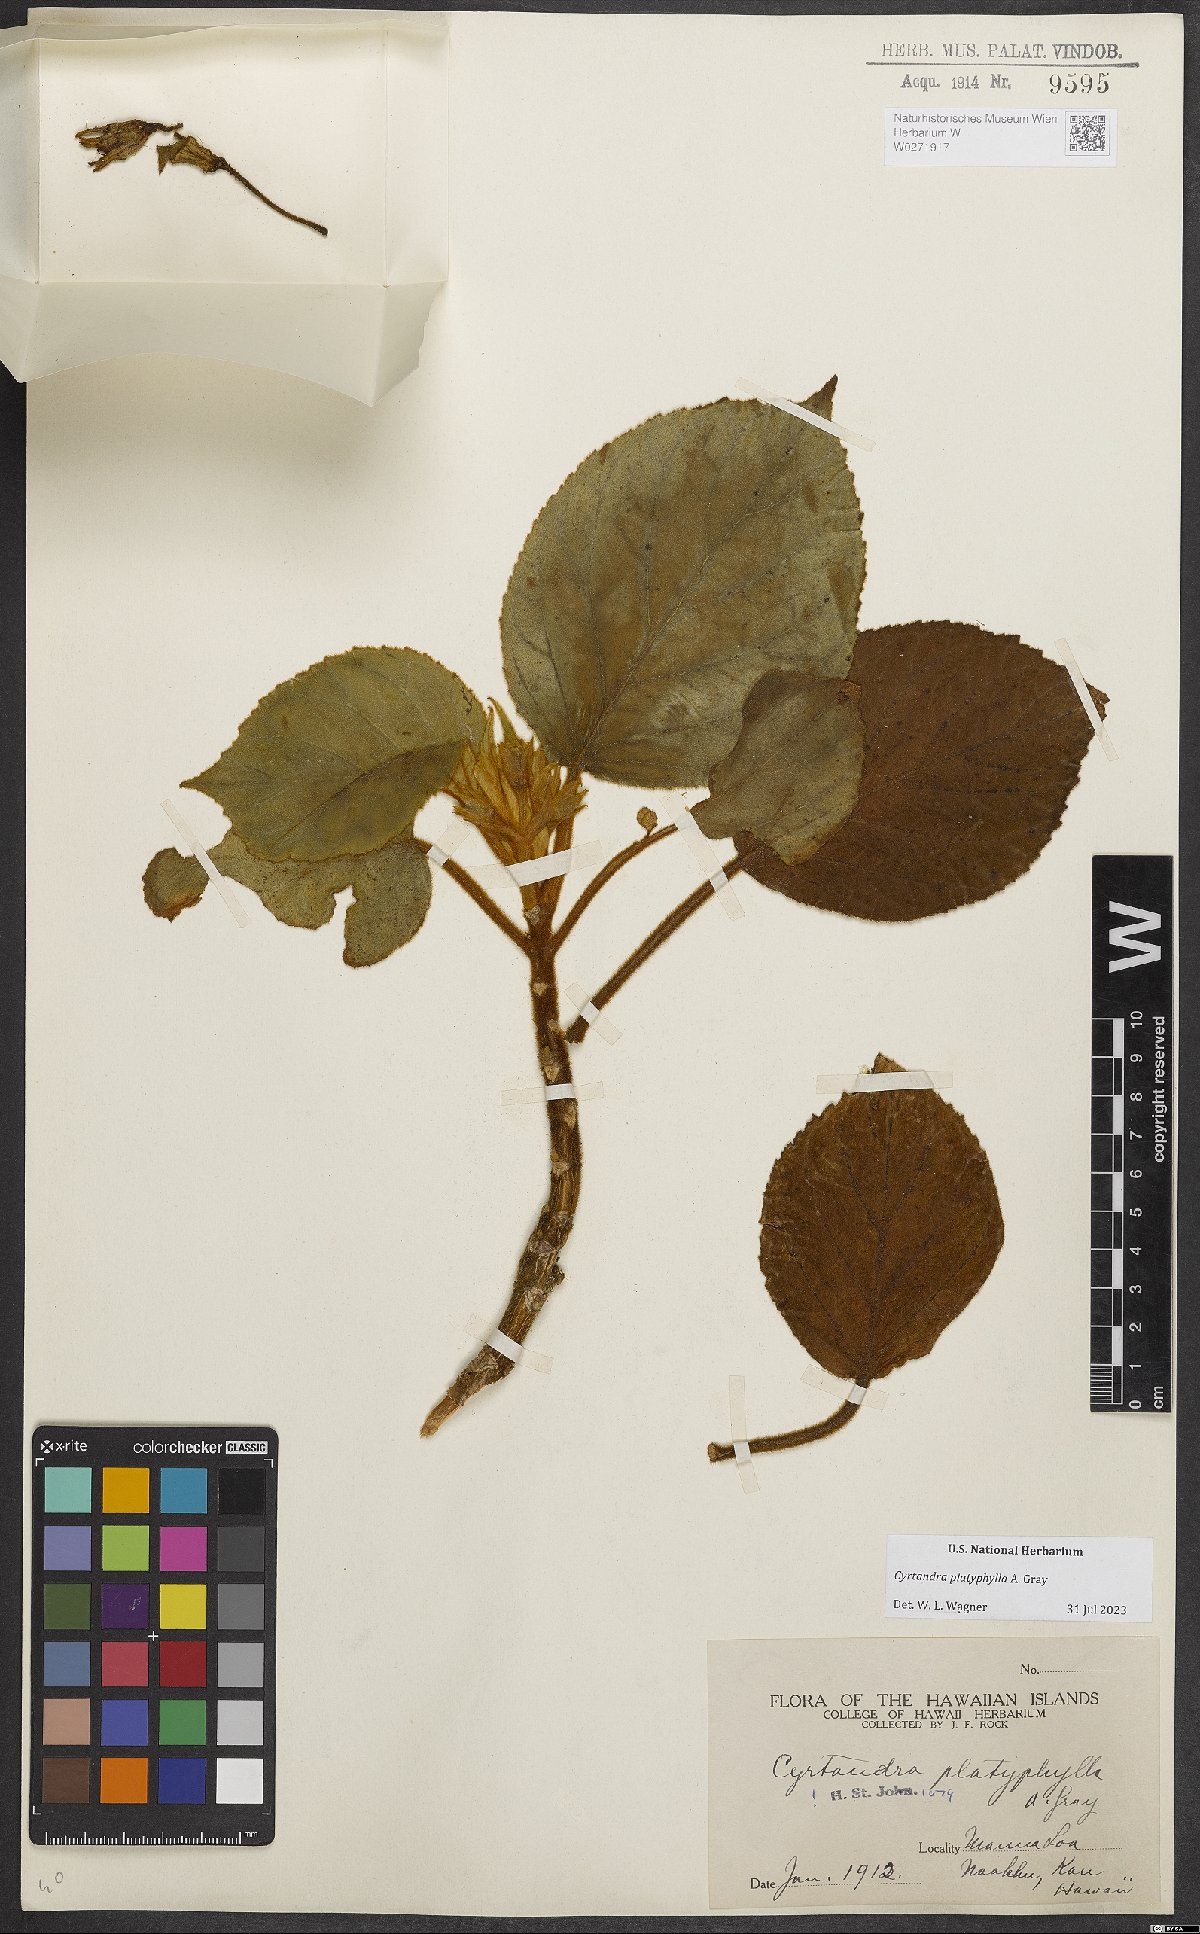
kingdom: Plantae
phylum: Tracheophyta
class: Magnoliopsida
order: Lamiales
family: Gesneriaceae
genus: Cyrtandra
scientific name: Cyrtandra platyphylla
